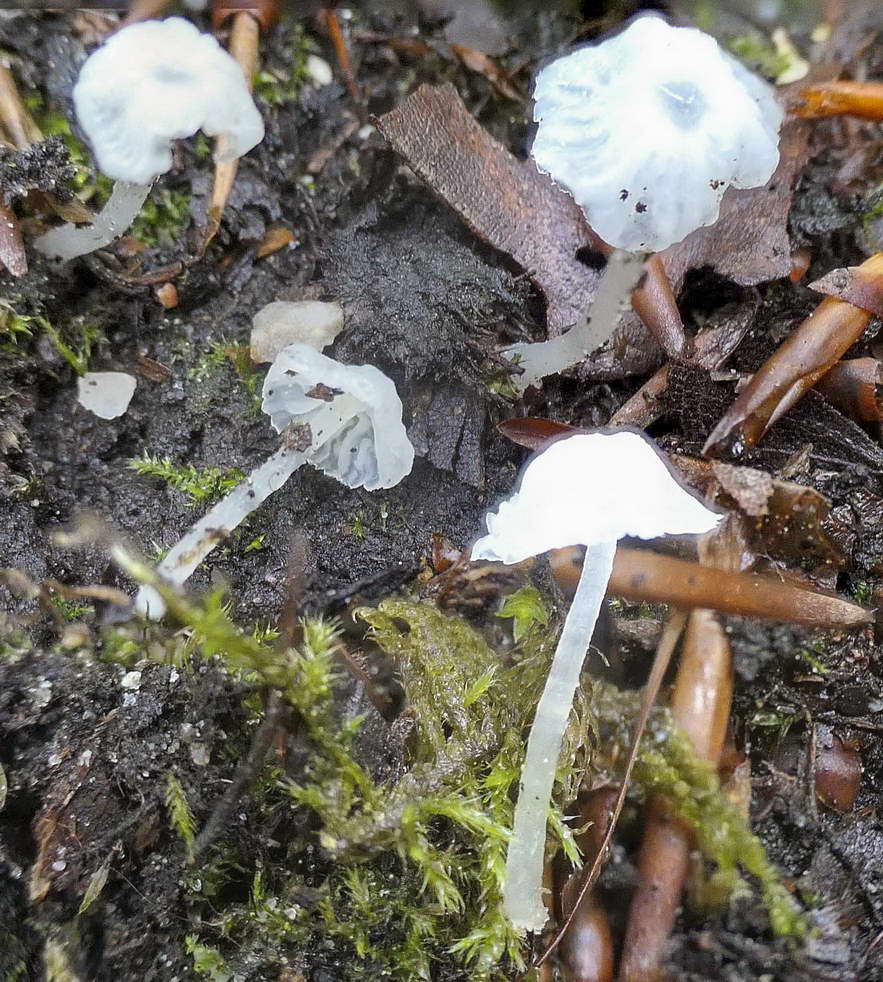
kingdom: Fungi
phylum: Basidiomycota
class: Agaricomycetes
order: Agaricales
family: Tricholomataceae
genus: Delicatula
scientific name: Delicatula integrella
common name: slørhuesvamp
